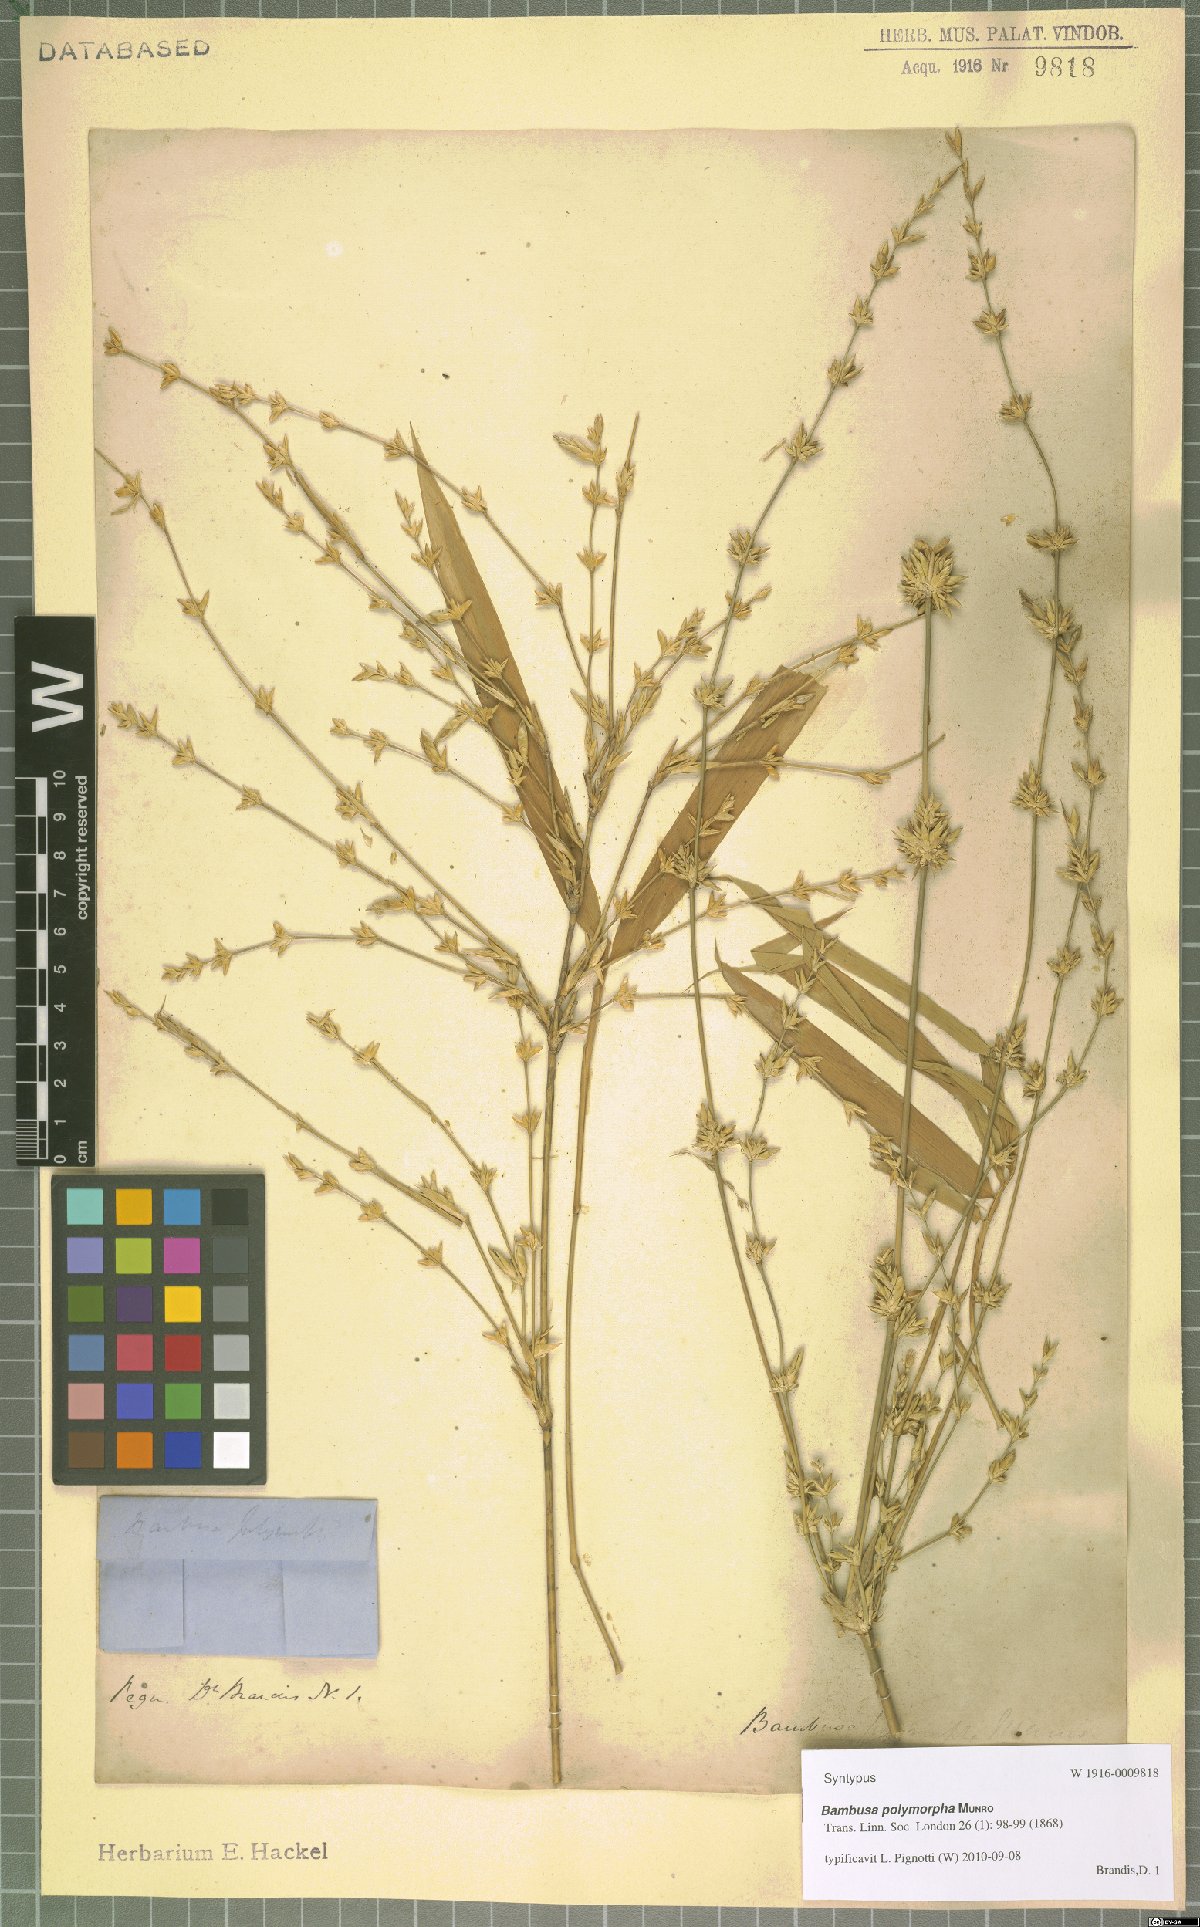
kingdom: Plantae
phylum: Tracheophyta
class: Liliopsida
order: Poales
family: Poaceae
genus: Bambusa
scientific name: Bambusa polymorpha
